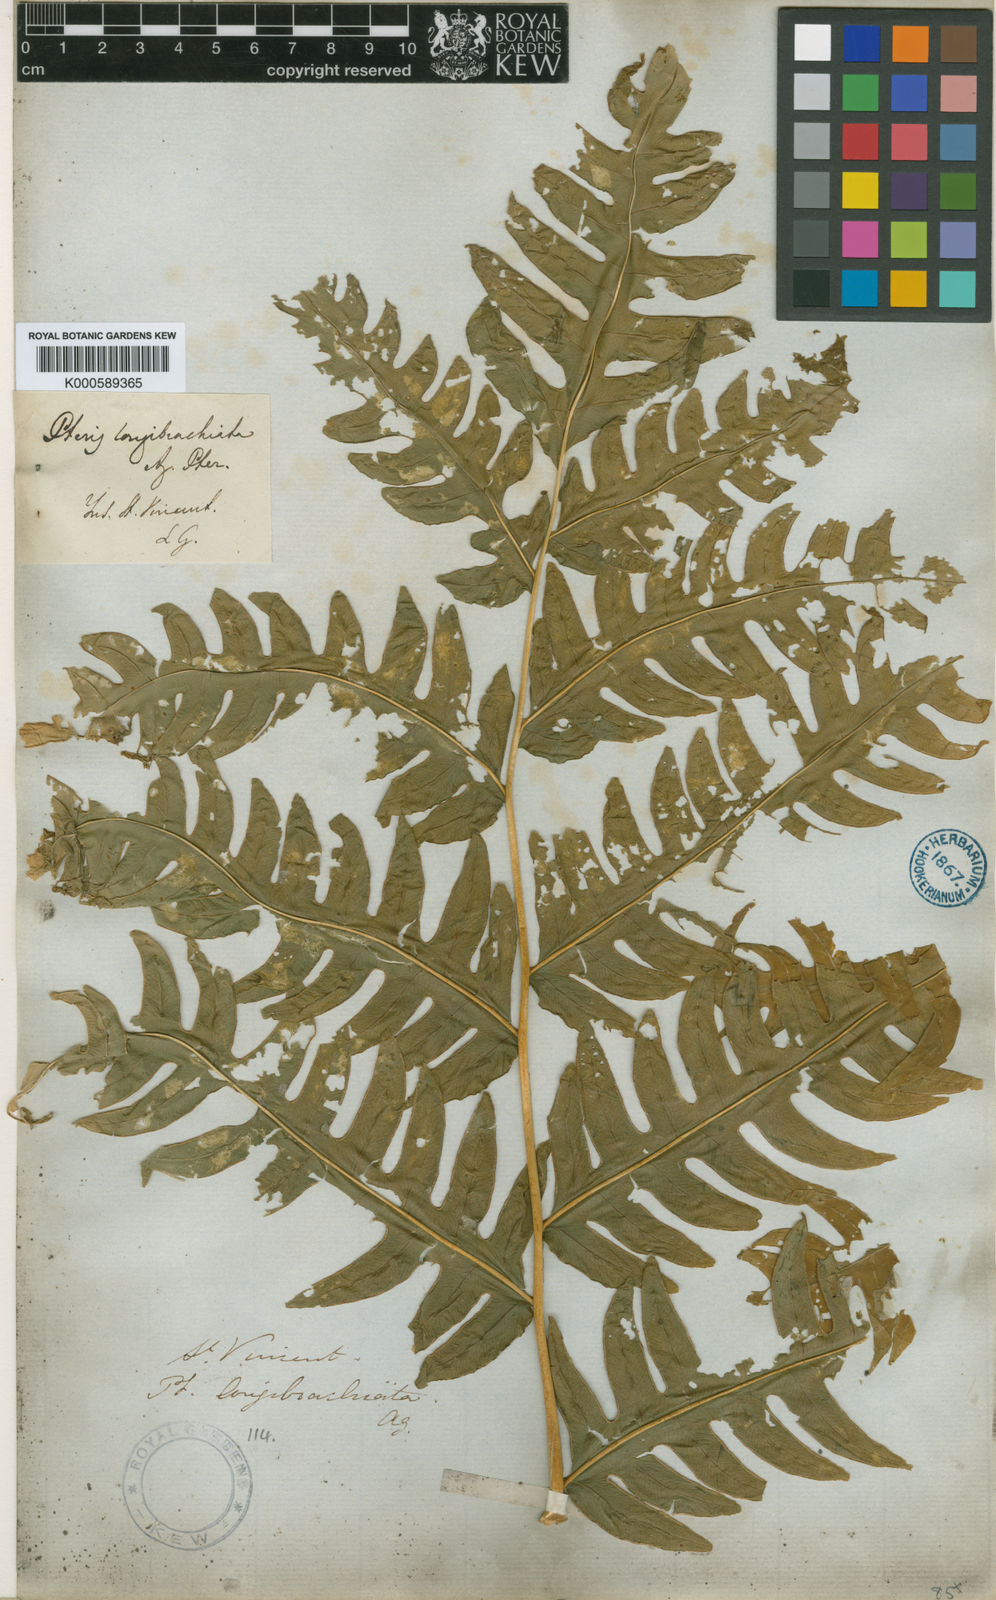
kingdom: Plantae
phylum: Tracheophyta
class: Polypodiopsida
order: Polypodiales
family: Pteridaceae
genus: Pteris
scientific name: Pteris arborea
